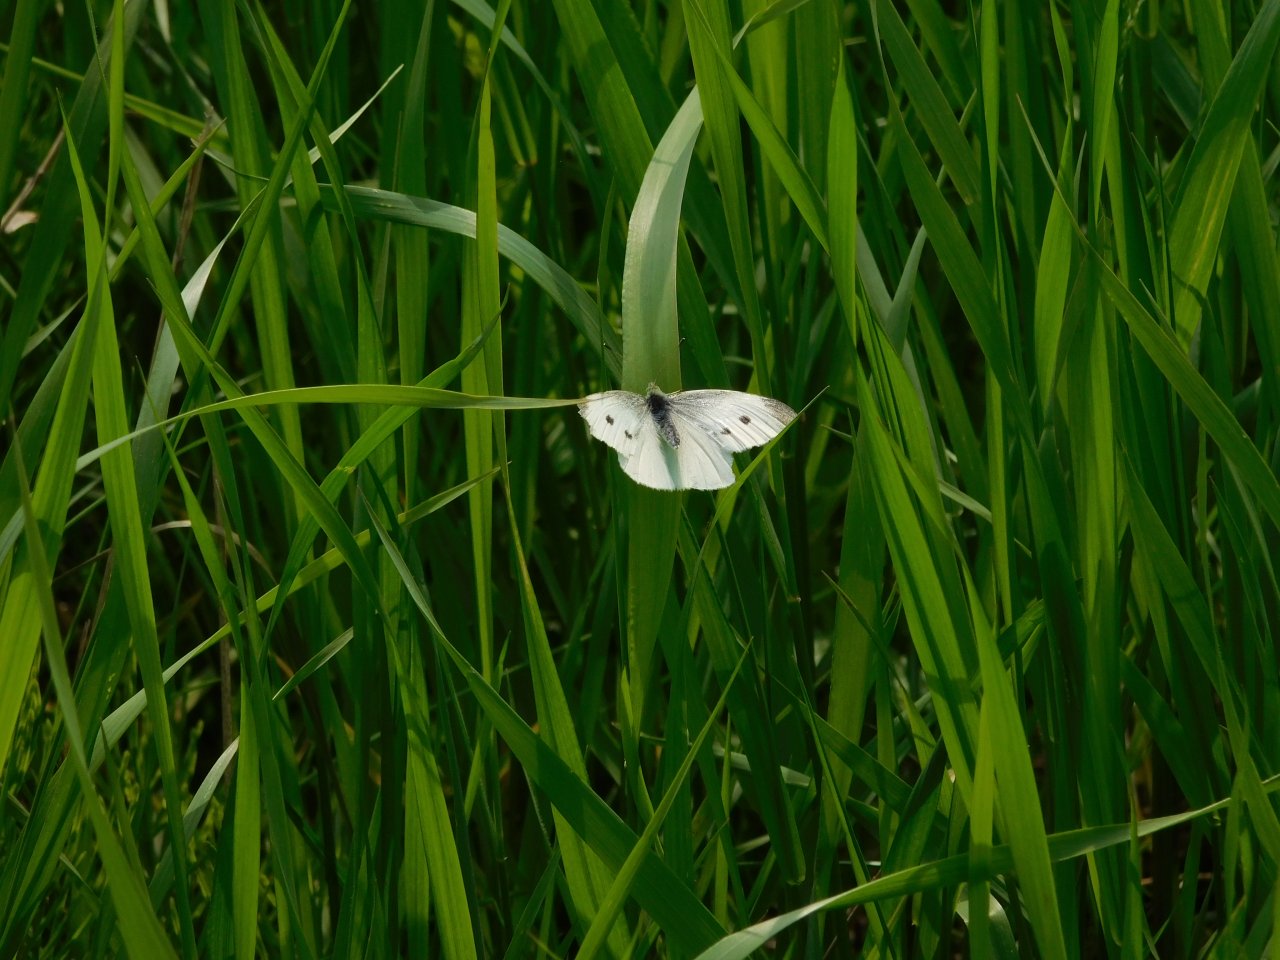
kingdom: Animalia
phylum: Arthropoda
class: Insecta
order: Lepidoptera
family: Pieridae
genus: Pieris
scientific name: Pieris rapae
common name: Cabbage White
